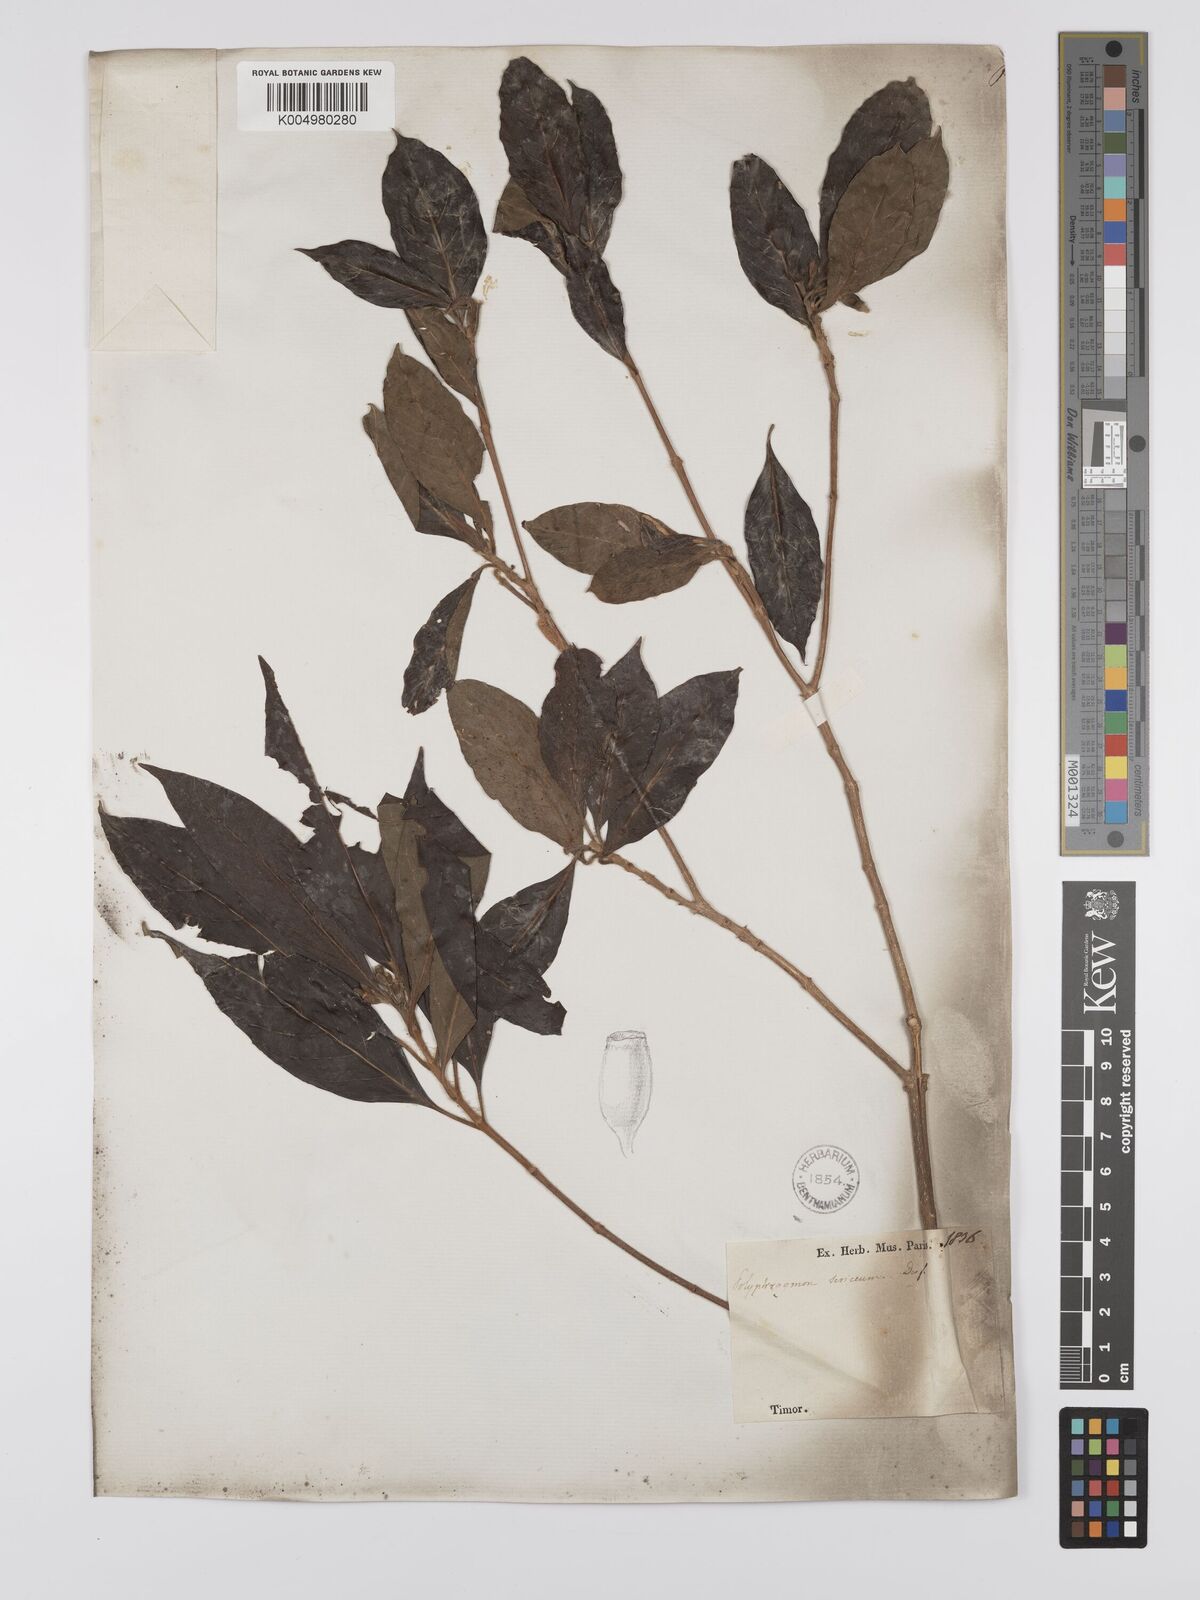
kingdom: Plantae
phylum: Tracheophyta
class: Magnoliopsida
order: Gentianales
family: Rubiaceae
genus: Timonius
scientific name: Timonius timon
